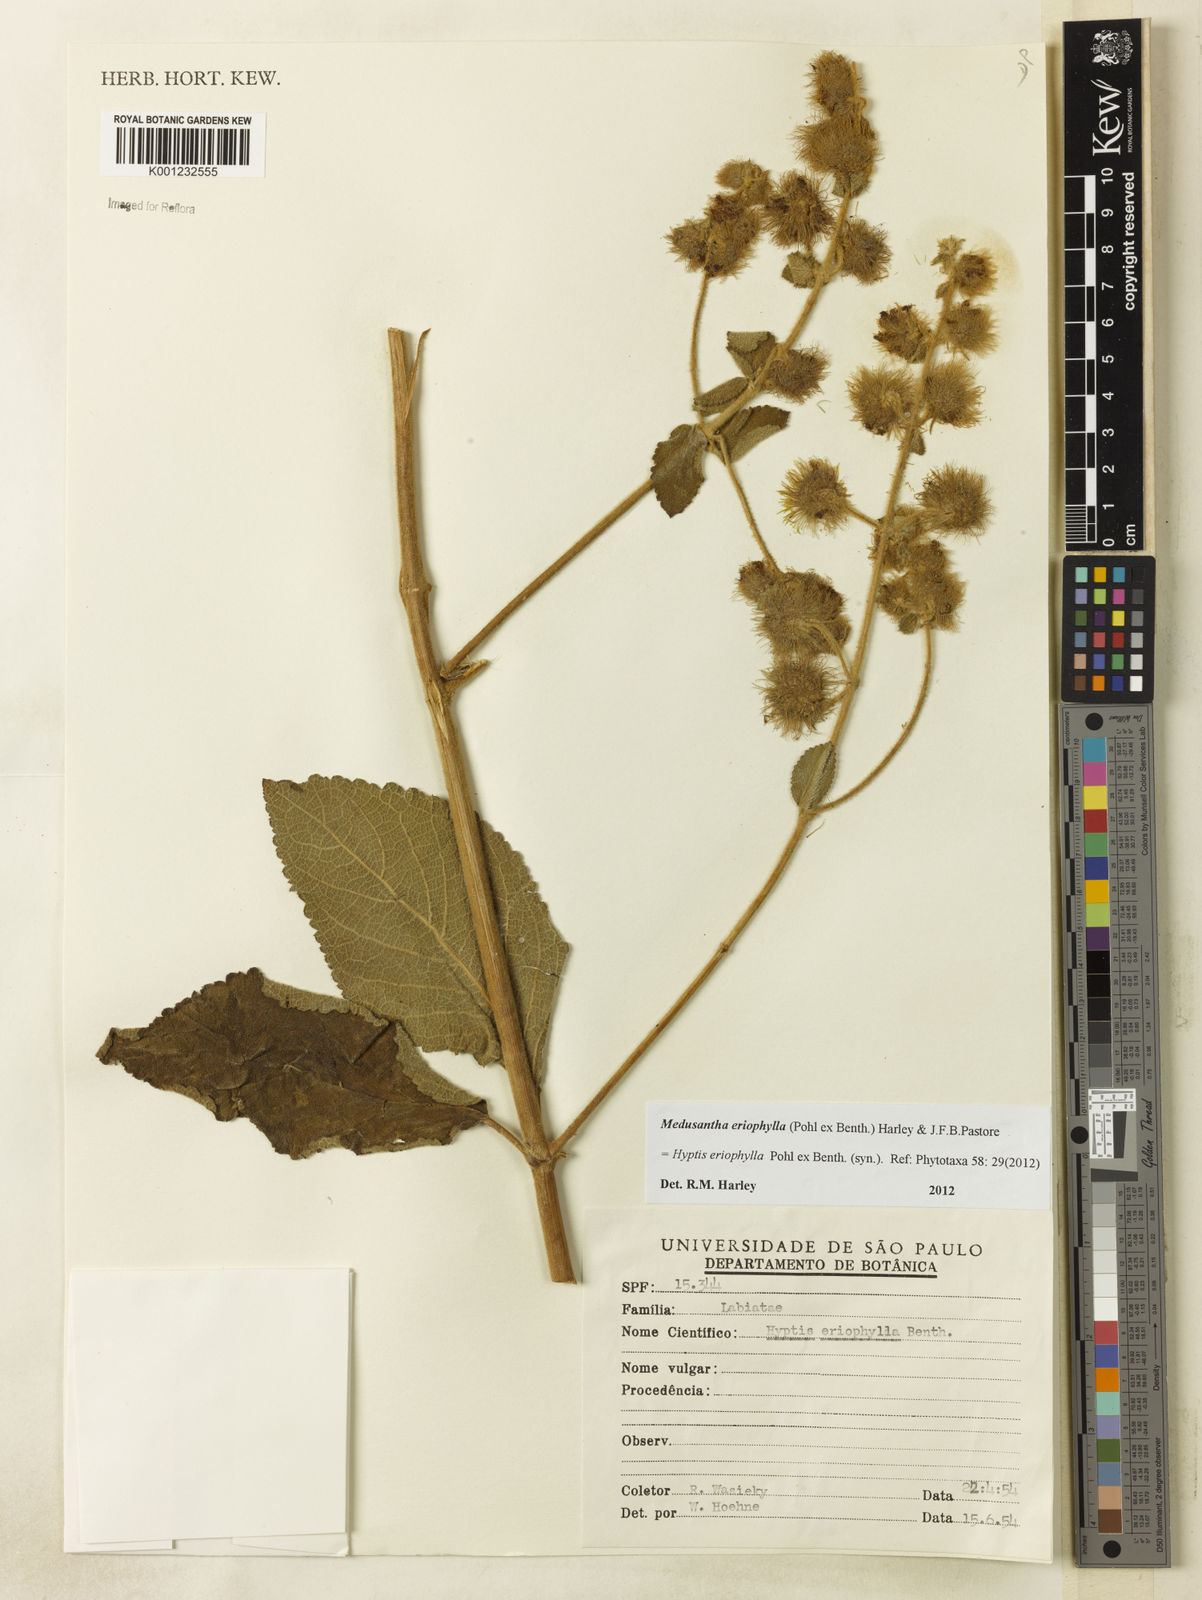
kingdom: Plantae
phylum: Tracheophyta
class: Magnoliopsida
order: Lamiales
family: Lamiaceae
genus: Medusantha
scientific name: Medusantha eriophylla
